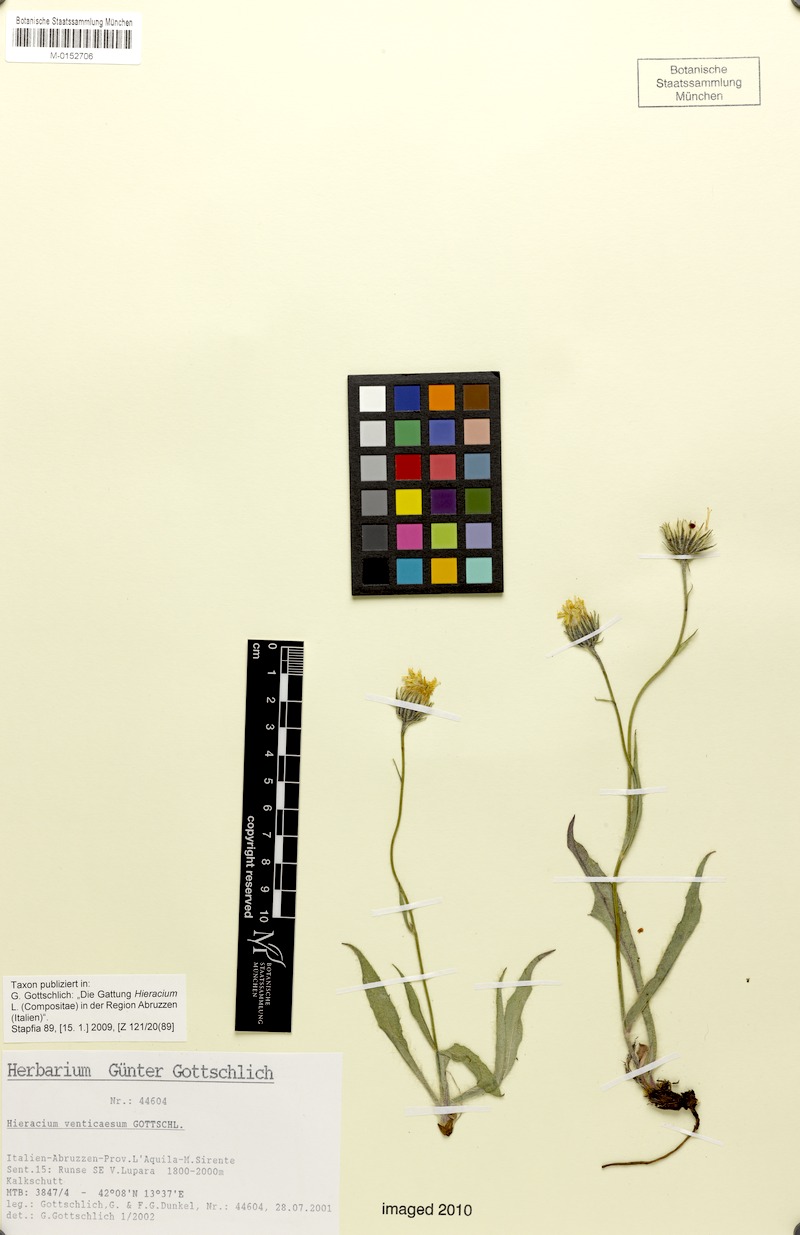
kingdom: Plantae
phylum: Tracheophyta
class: Magnoliopsida
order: Asterales
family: Asteraceae
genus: Hieracium
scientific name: Hieracium venticaesum
